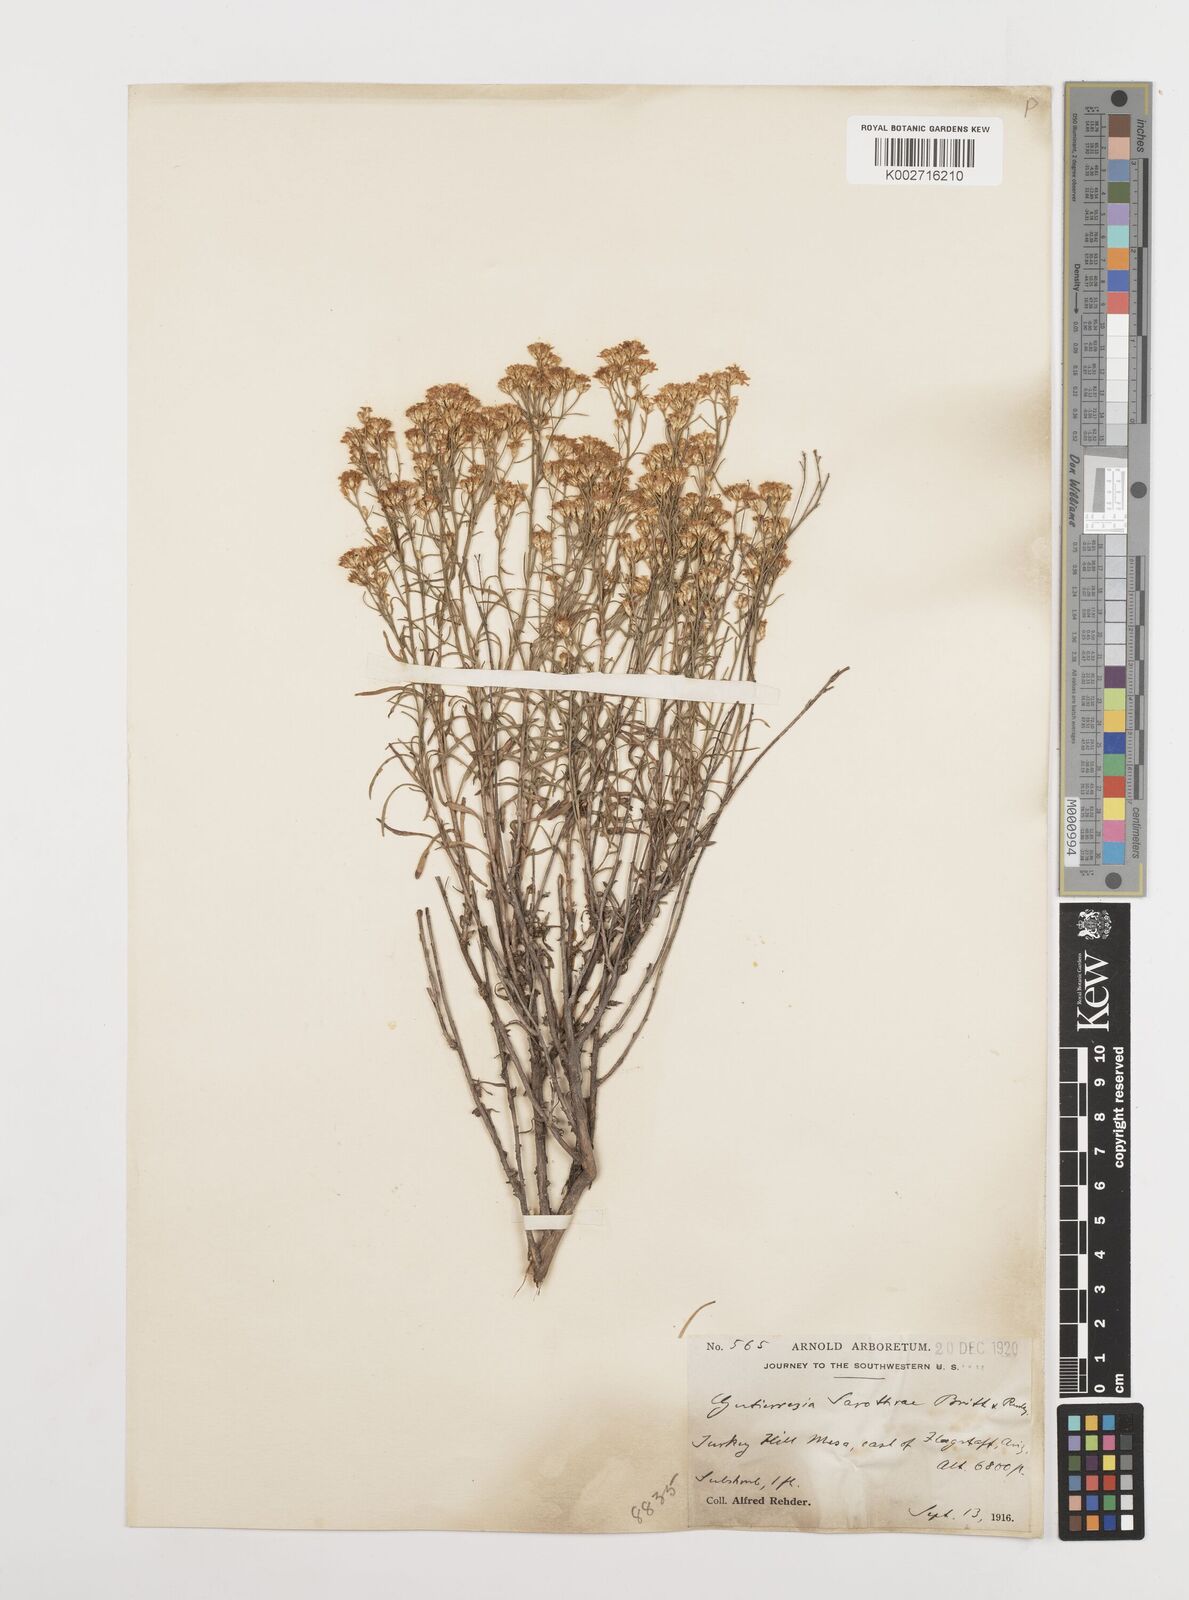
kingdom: Plantae
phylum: Tracheophyta
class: Magnoliopsida
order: Asterales
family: Asteraceae
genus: Gutierrezia
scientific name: Gutierrezia sarothrae
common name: Broom snakeweed
